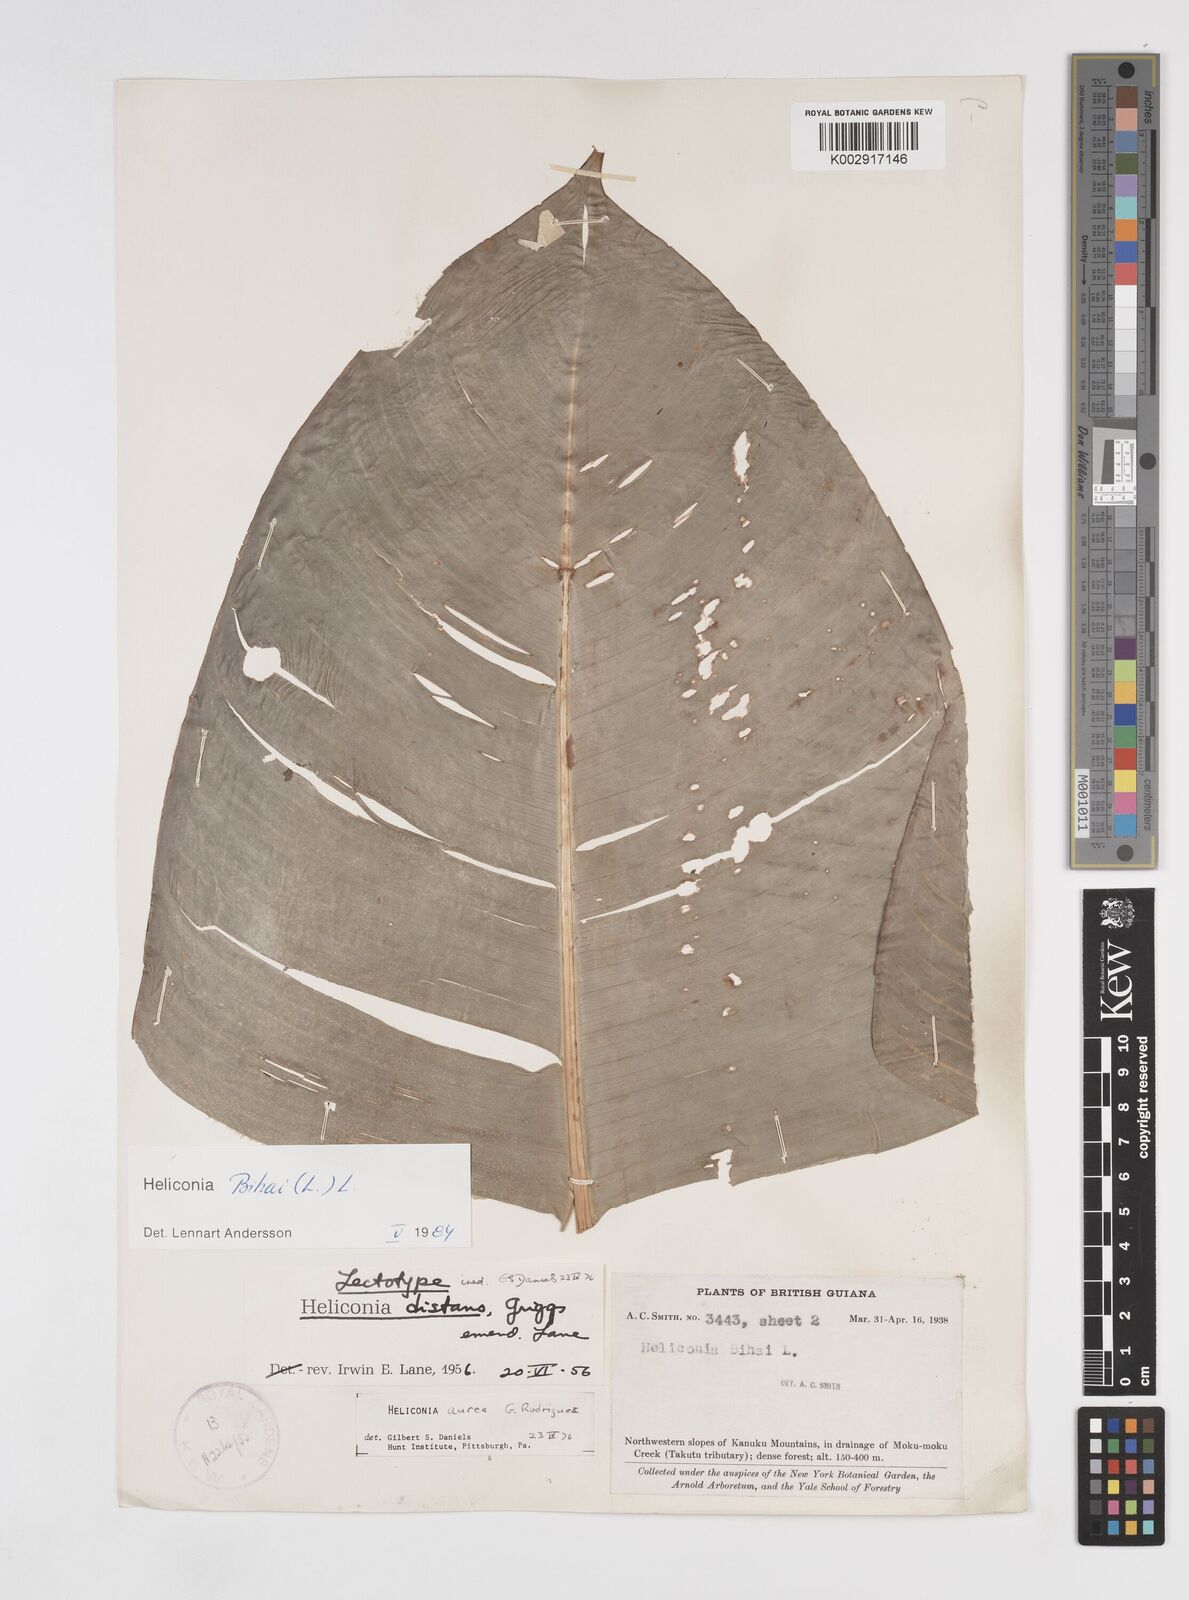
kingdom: Plantae
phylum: Tracheophyta
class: Liliopsida
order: Zingiberales
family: Heliconiaceae
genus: Heliconia
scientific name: Heliconia bihai
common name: Macaw flower
